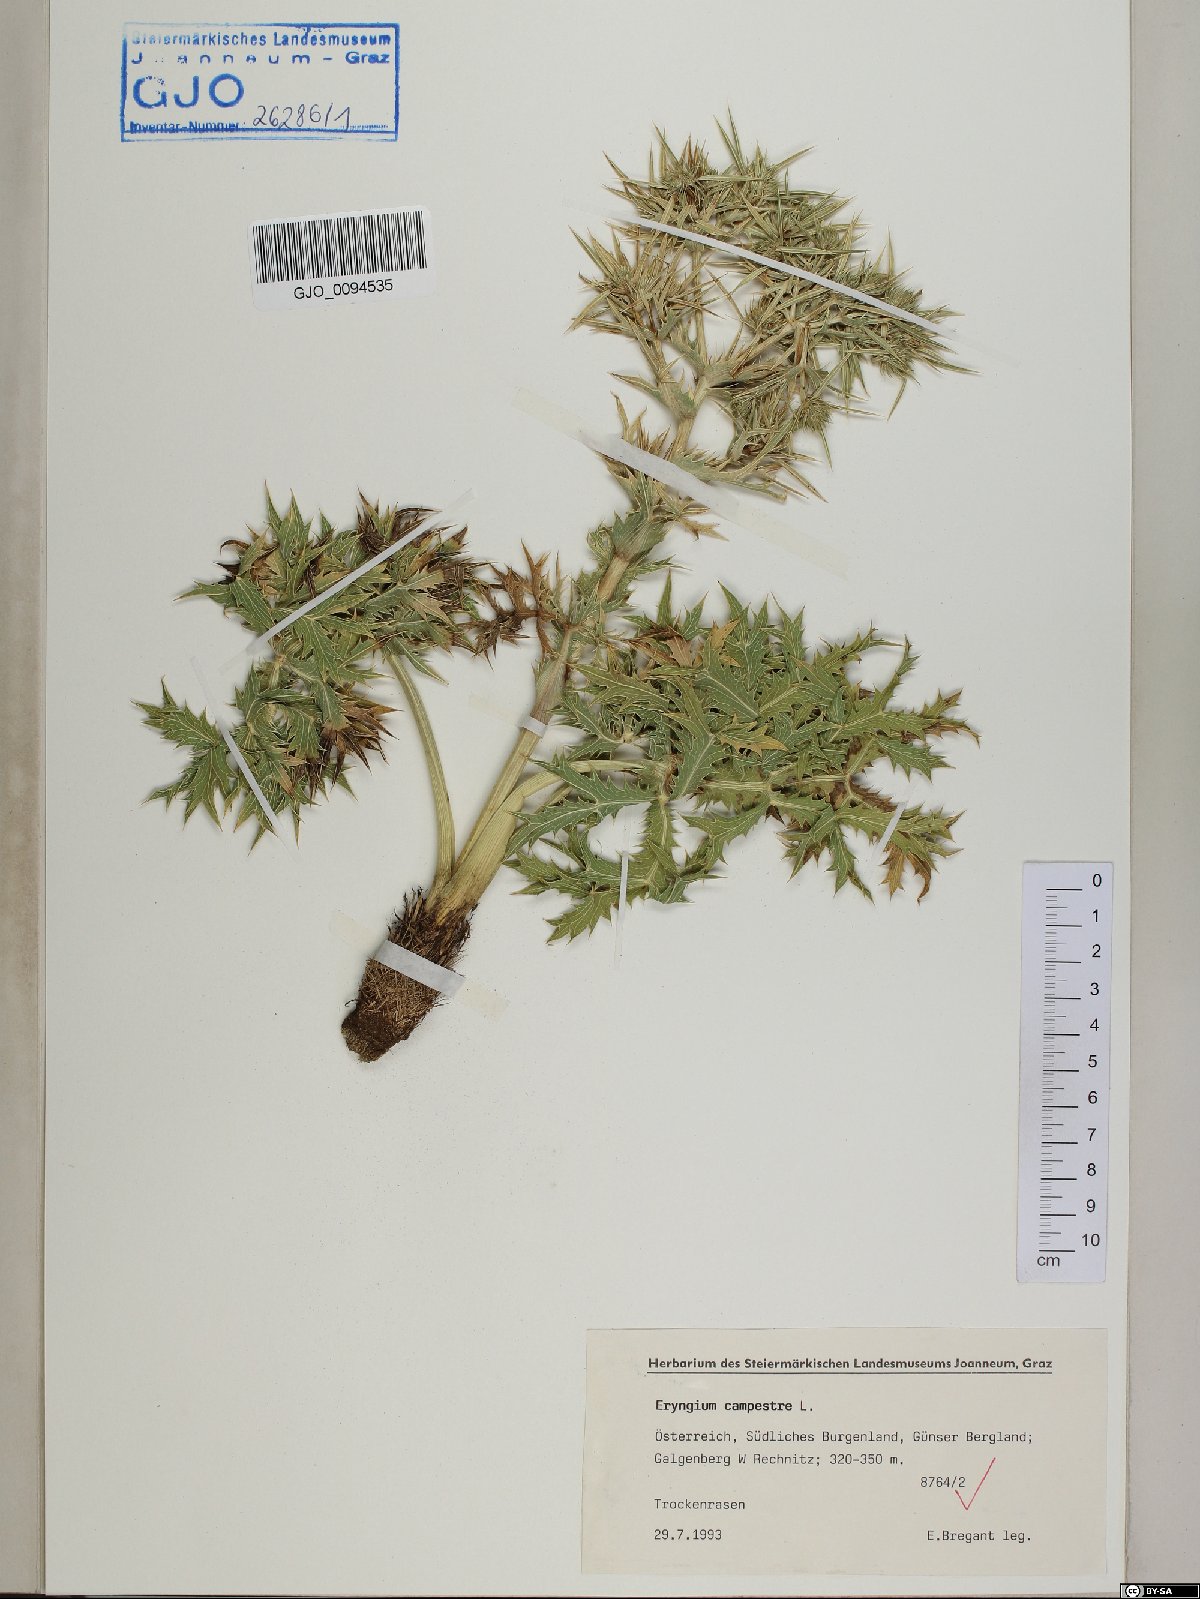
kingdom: Plantae
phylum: Tracheophyta
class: Magnoliopsida
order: Apiales
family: Apiaceae
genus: Eryngium
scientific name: Eryngium campestre
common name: Field eryngo
